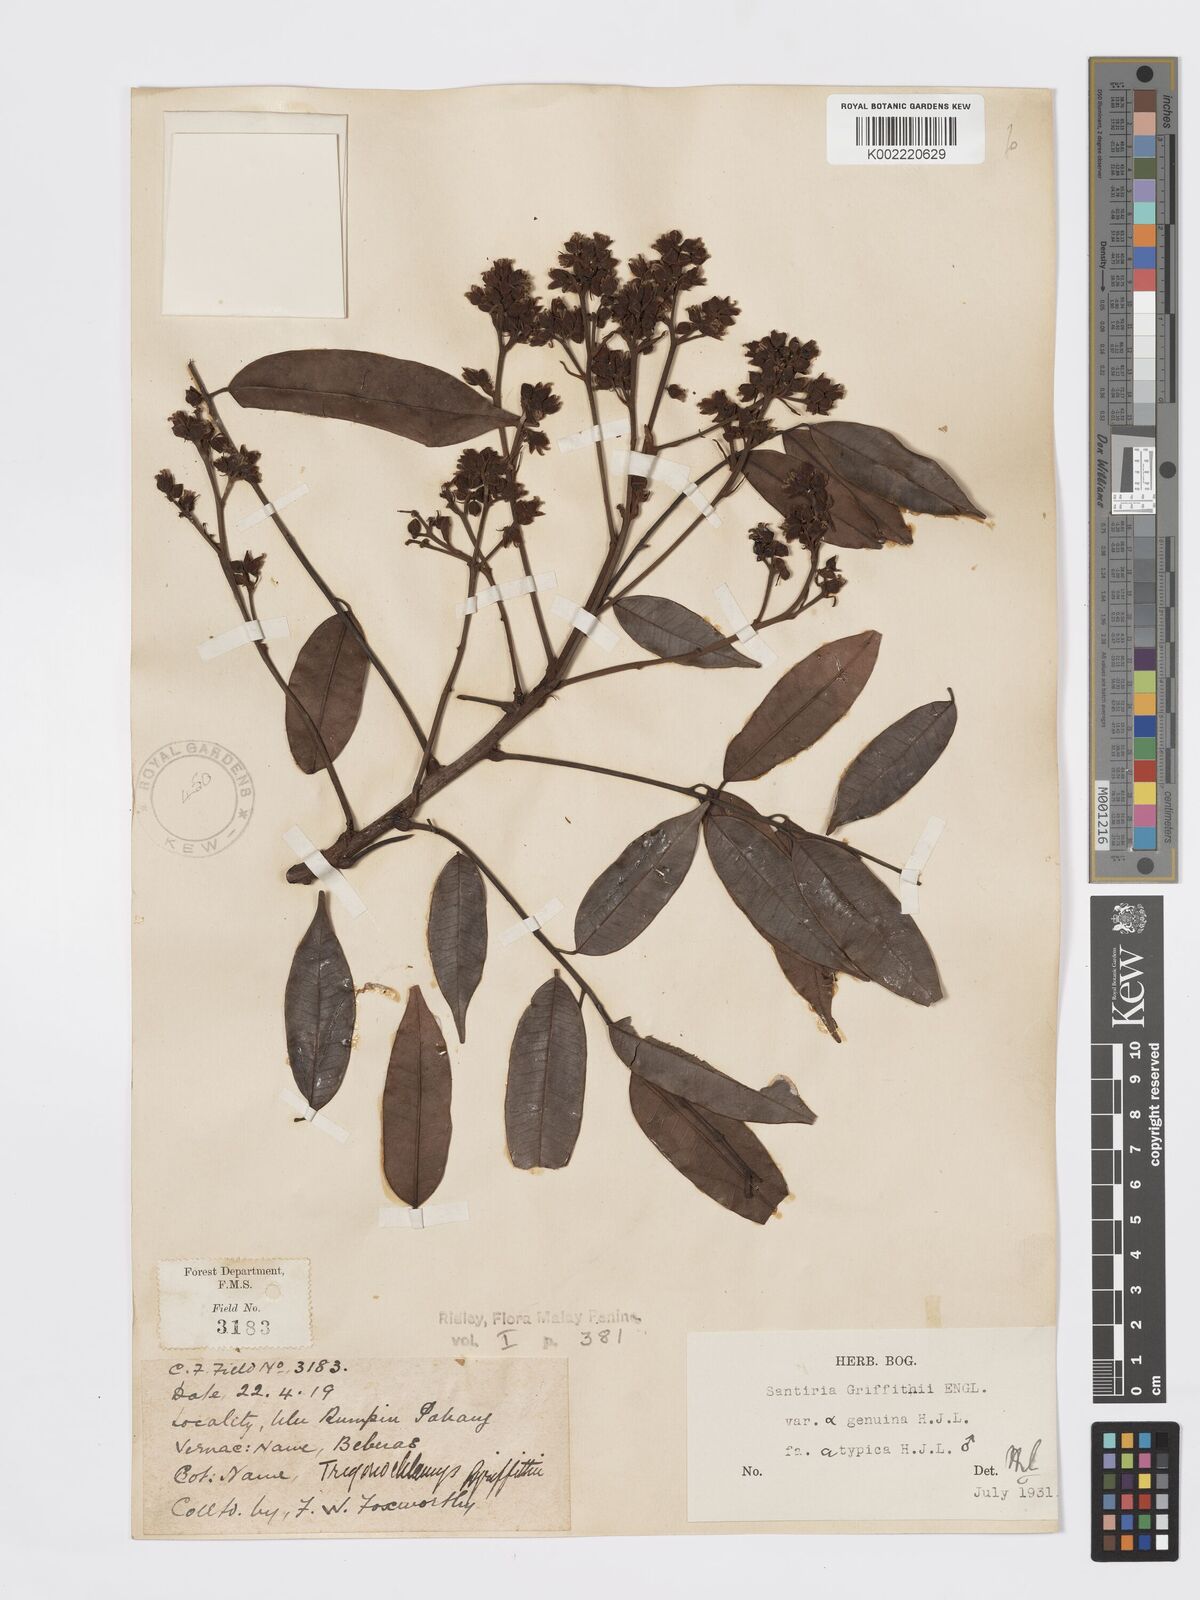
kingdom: Plantae
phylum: Tracheophyta
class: Magnoliopsida
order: Sapindales
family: Burseraceae
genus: Santiria
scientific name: Santiria griffithii
